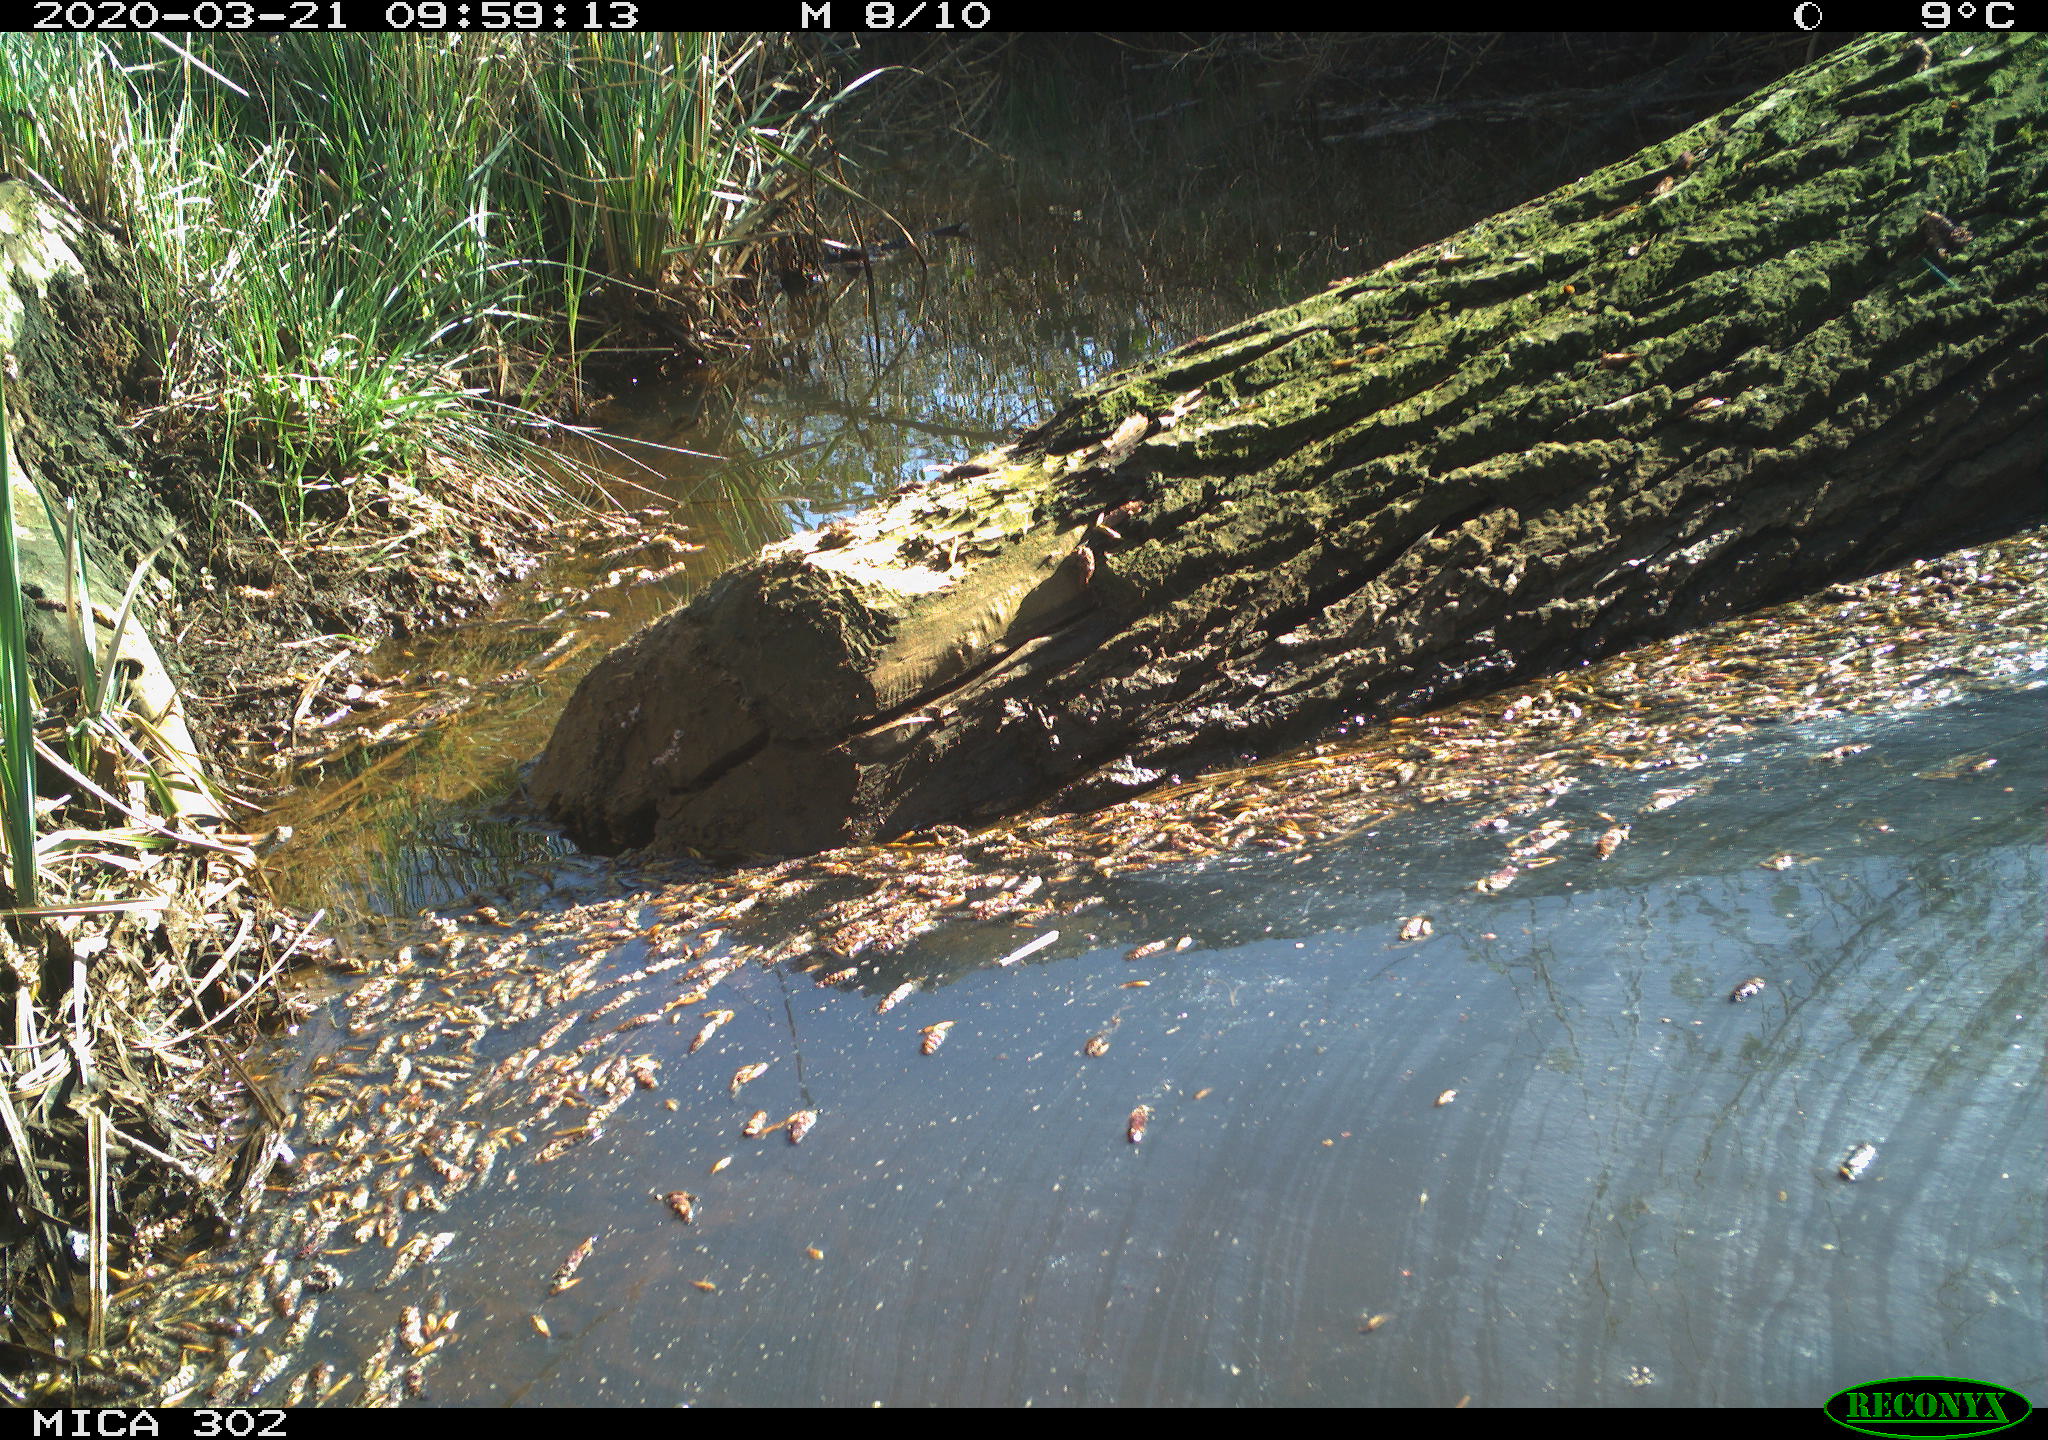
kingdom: Animalia
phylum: Chordata
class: Aves
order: Passeriformes
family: Troglodytidae
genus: Troglodytes
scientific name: Troglodytes troglodytes
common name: Eurasian wren
